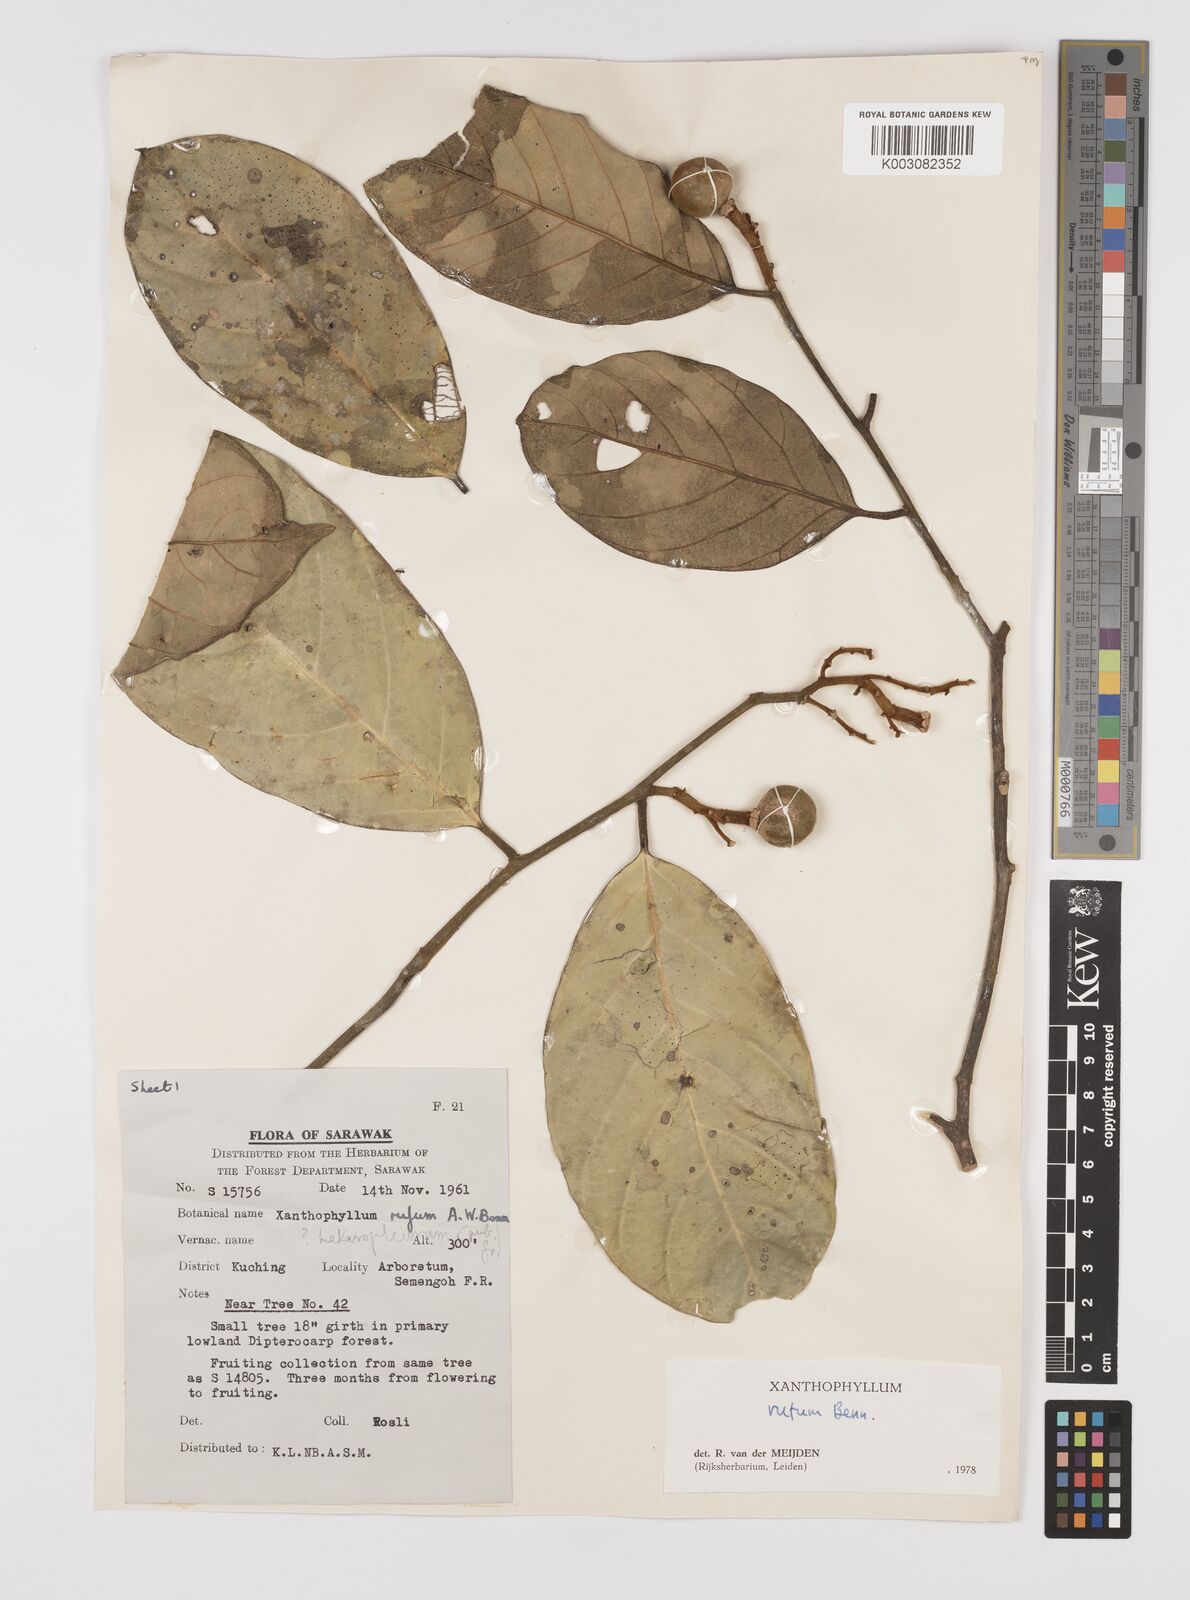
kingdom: Plantae
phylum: Tracheophyta
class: Magnoliopsida
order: Fabales
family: Polygalaceae
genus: Xanthophyllum
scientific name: Xanthophyllum rufum
